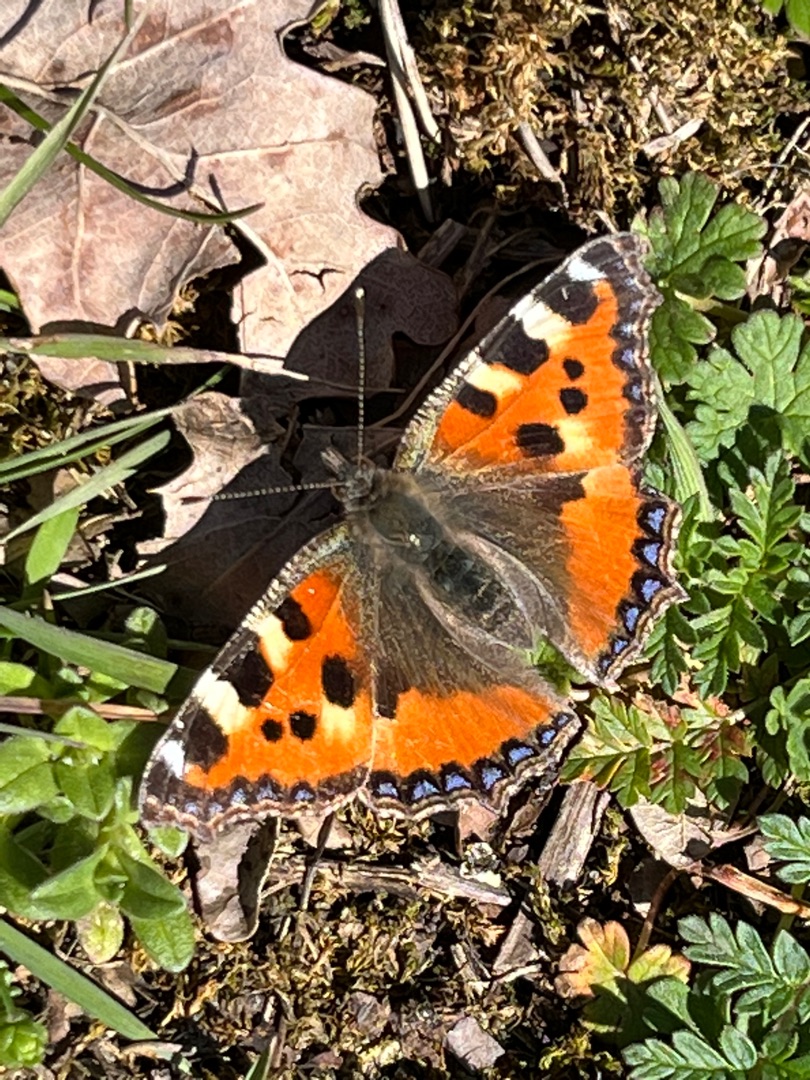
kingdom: Animalia
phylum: Arthropoda
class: Insecta
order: Lepidoptera
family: Nymphalidae
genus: Aglais
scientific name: Aglais urticae
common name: Nældens takvinge
